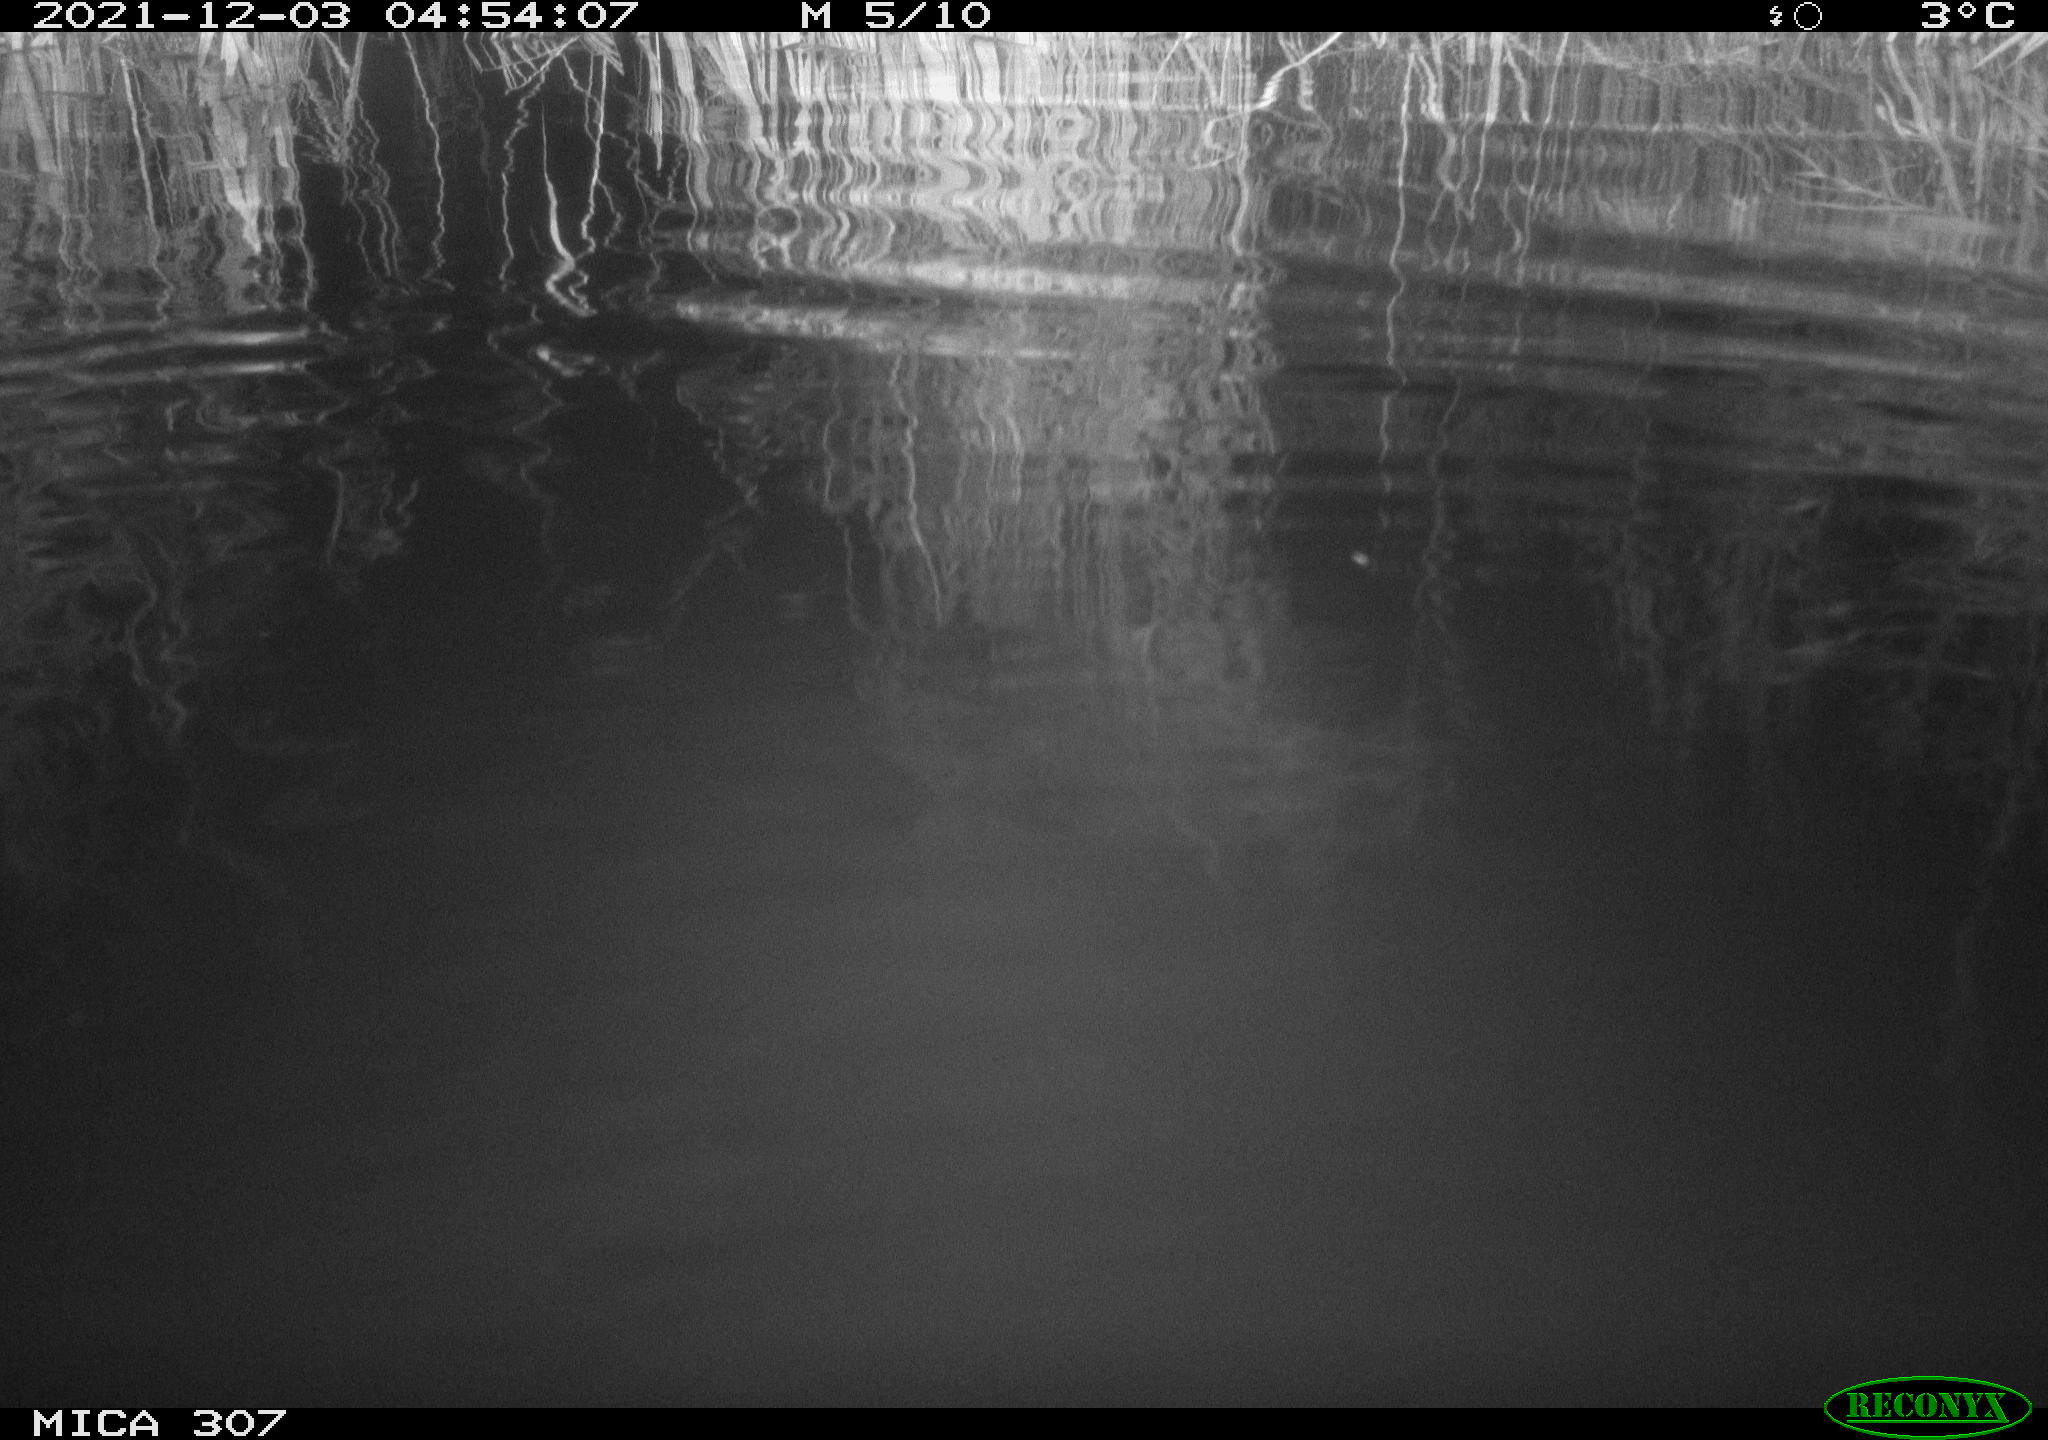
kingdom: Animalia
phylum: Chordata
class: Mammalia
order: Rodentia
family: Muridae
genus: Rattus
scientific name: Rattus norvegicus
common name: Brown rat
